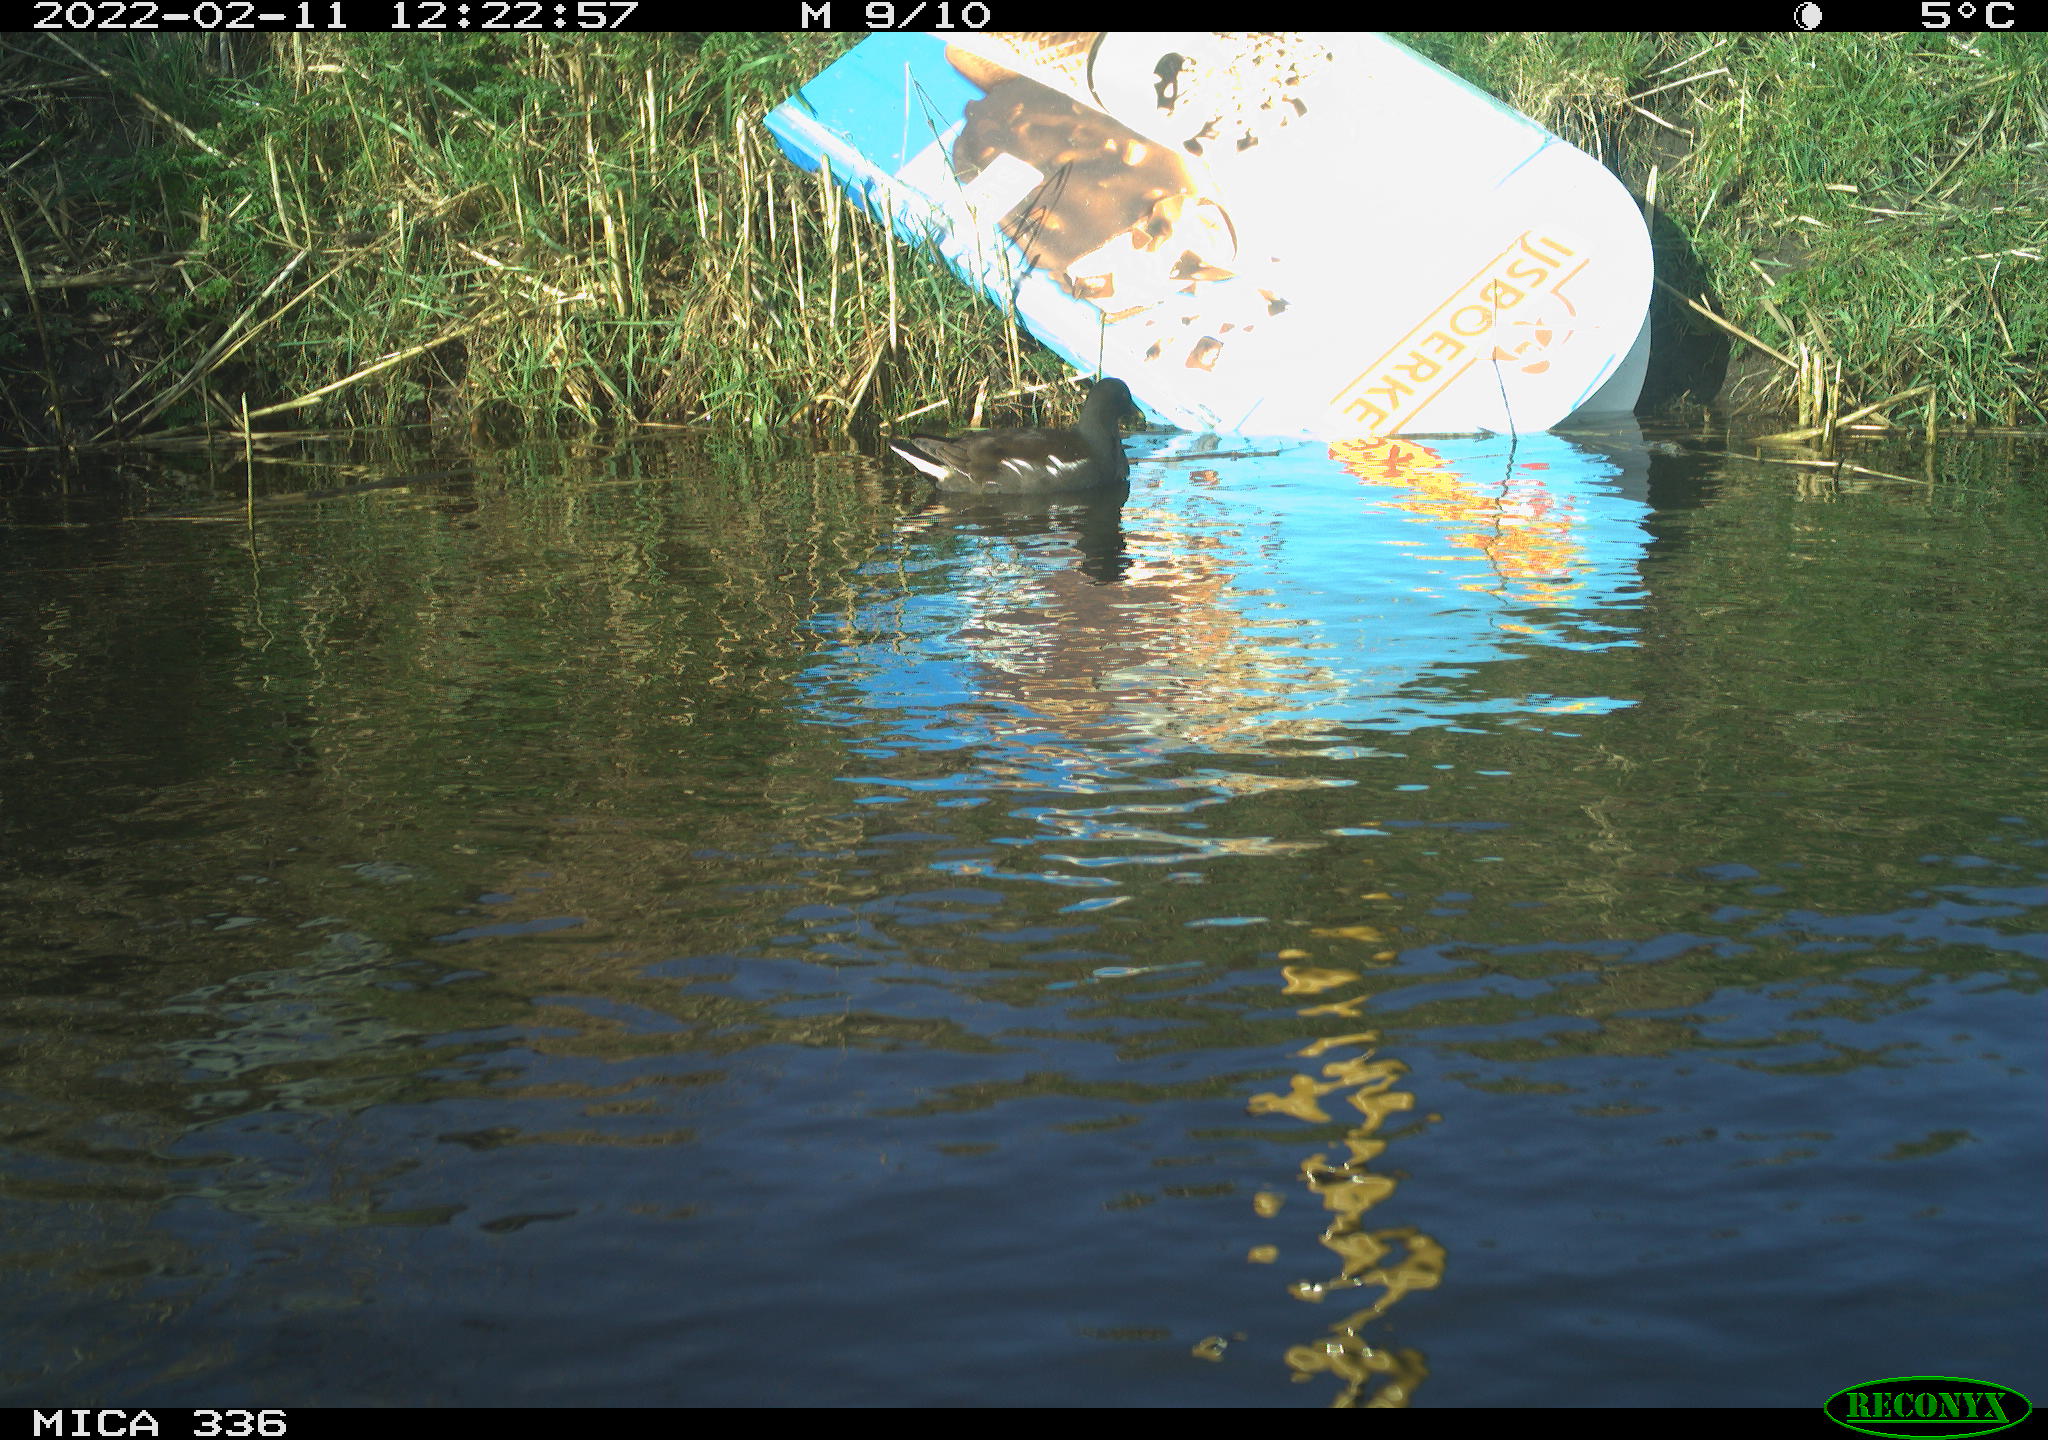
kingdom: Animalia
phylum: Chordata
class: Aves
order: Gruiformes
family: Rallidae
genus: Gallinula
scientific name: Gallinula chloropus
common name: Common moorhen
